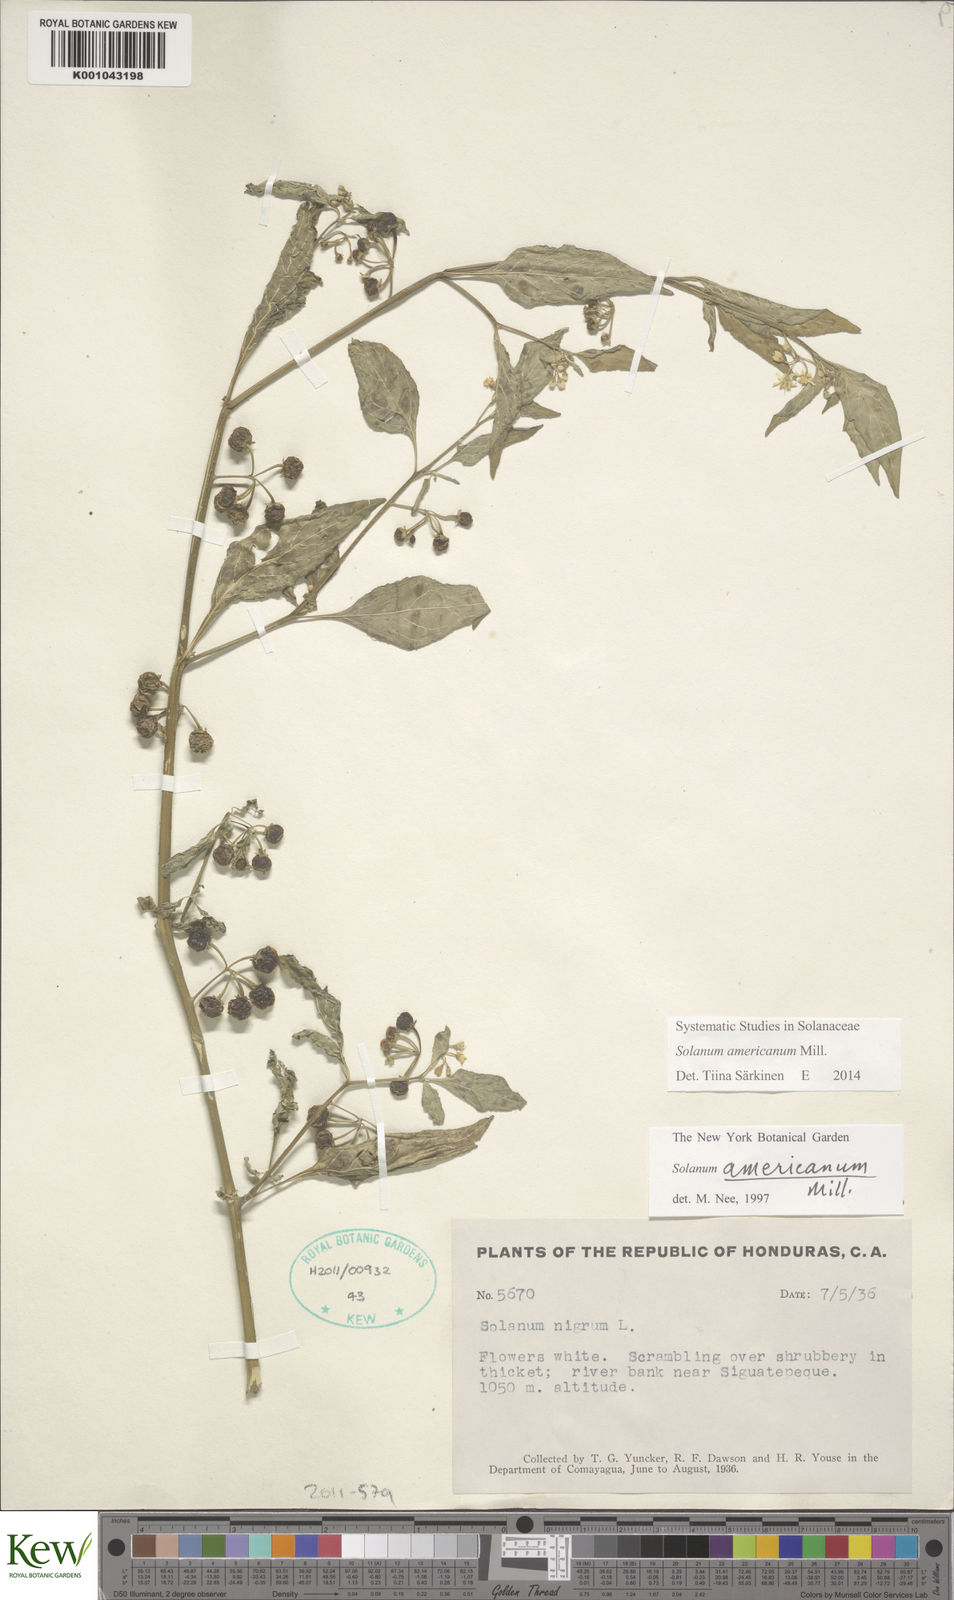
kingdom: Plantae
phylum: Tracheophyta
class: Magnoliopsida
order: Solanales
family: Solanaceae
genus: Solanum
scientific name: Solanum americanum
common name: American black nightshade
